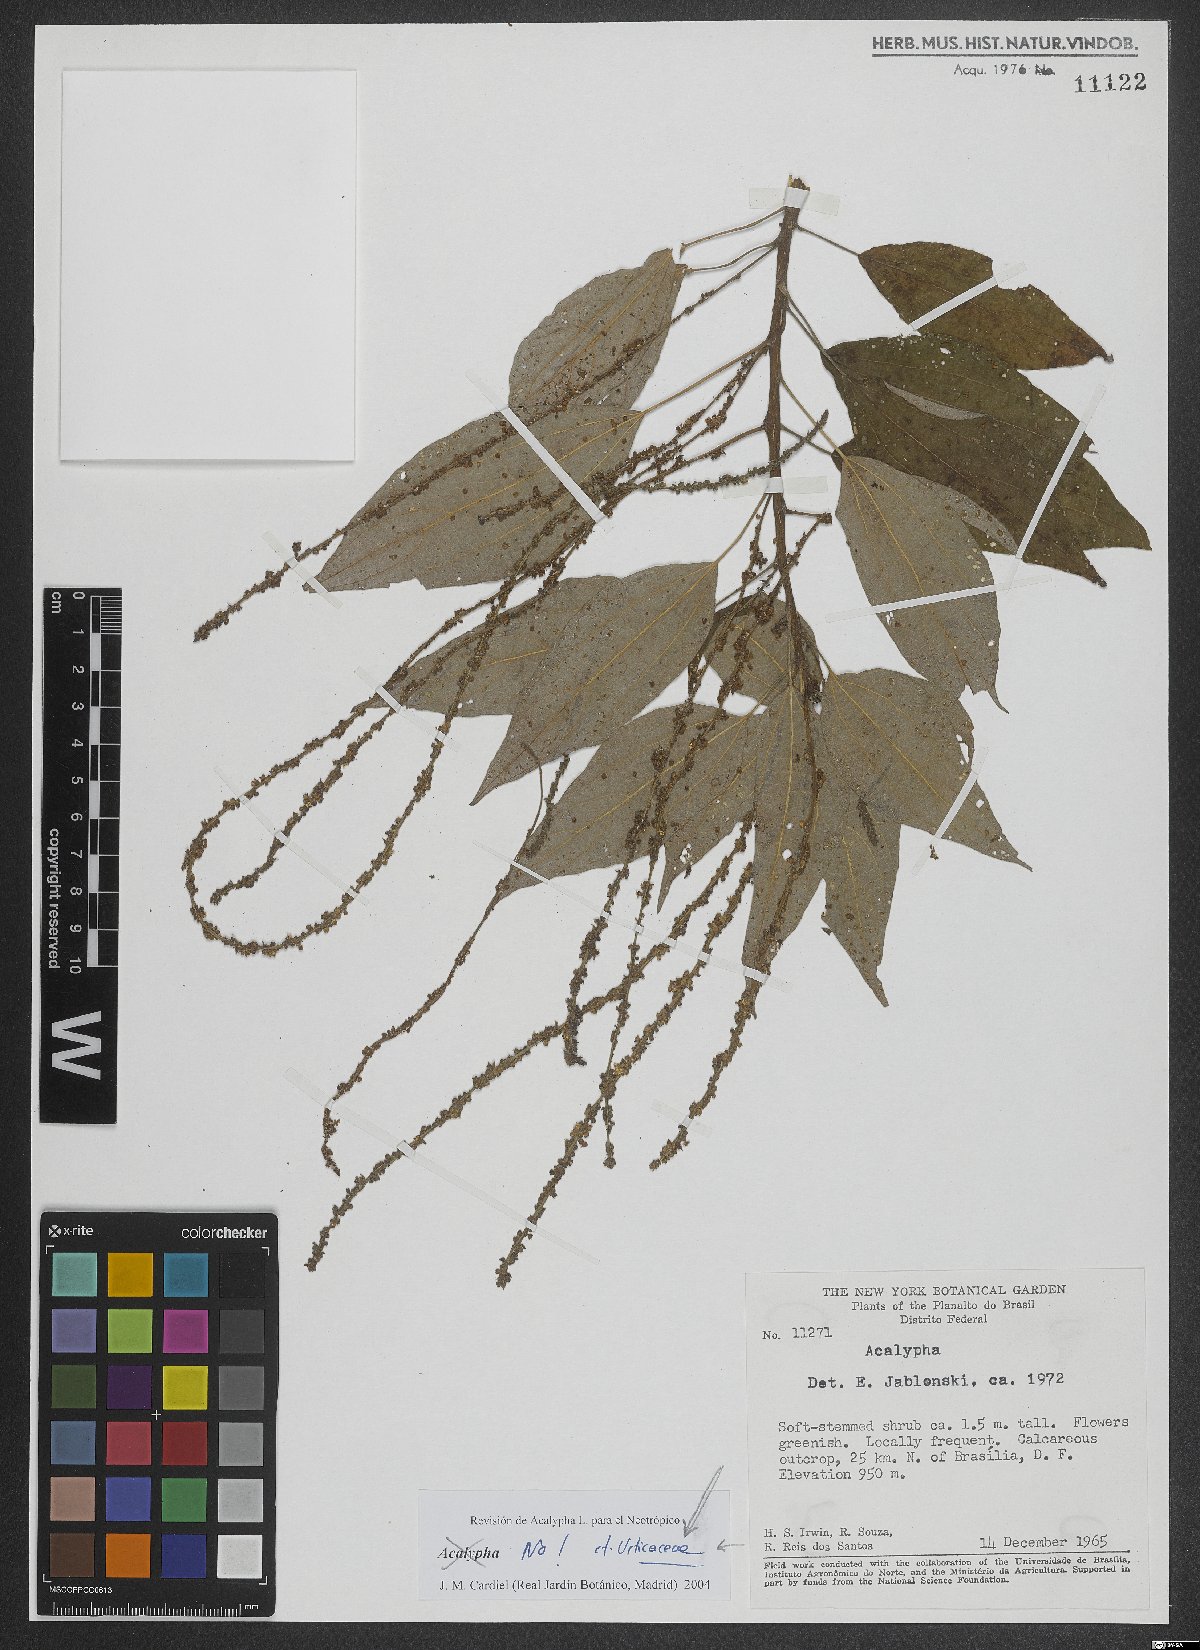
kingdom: Plantae
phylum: Tracheophyta
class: Magnoliopsida
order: Rosales
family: Urticaceae
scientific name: Urticaceae
